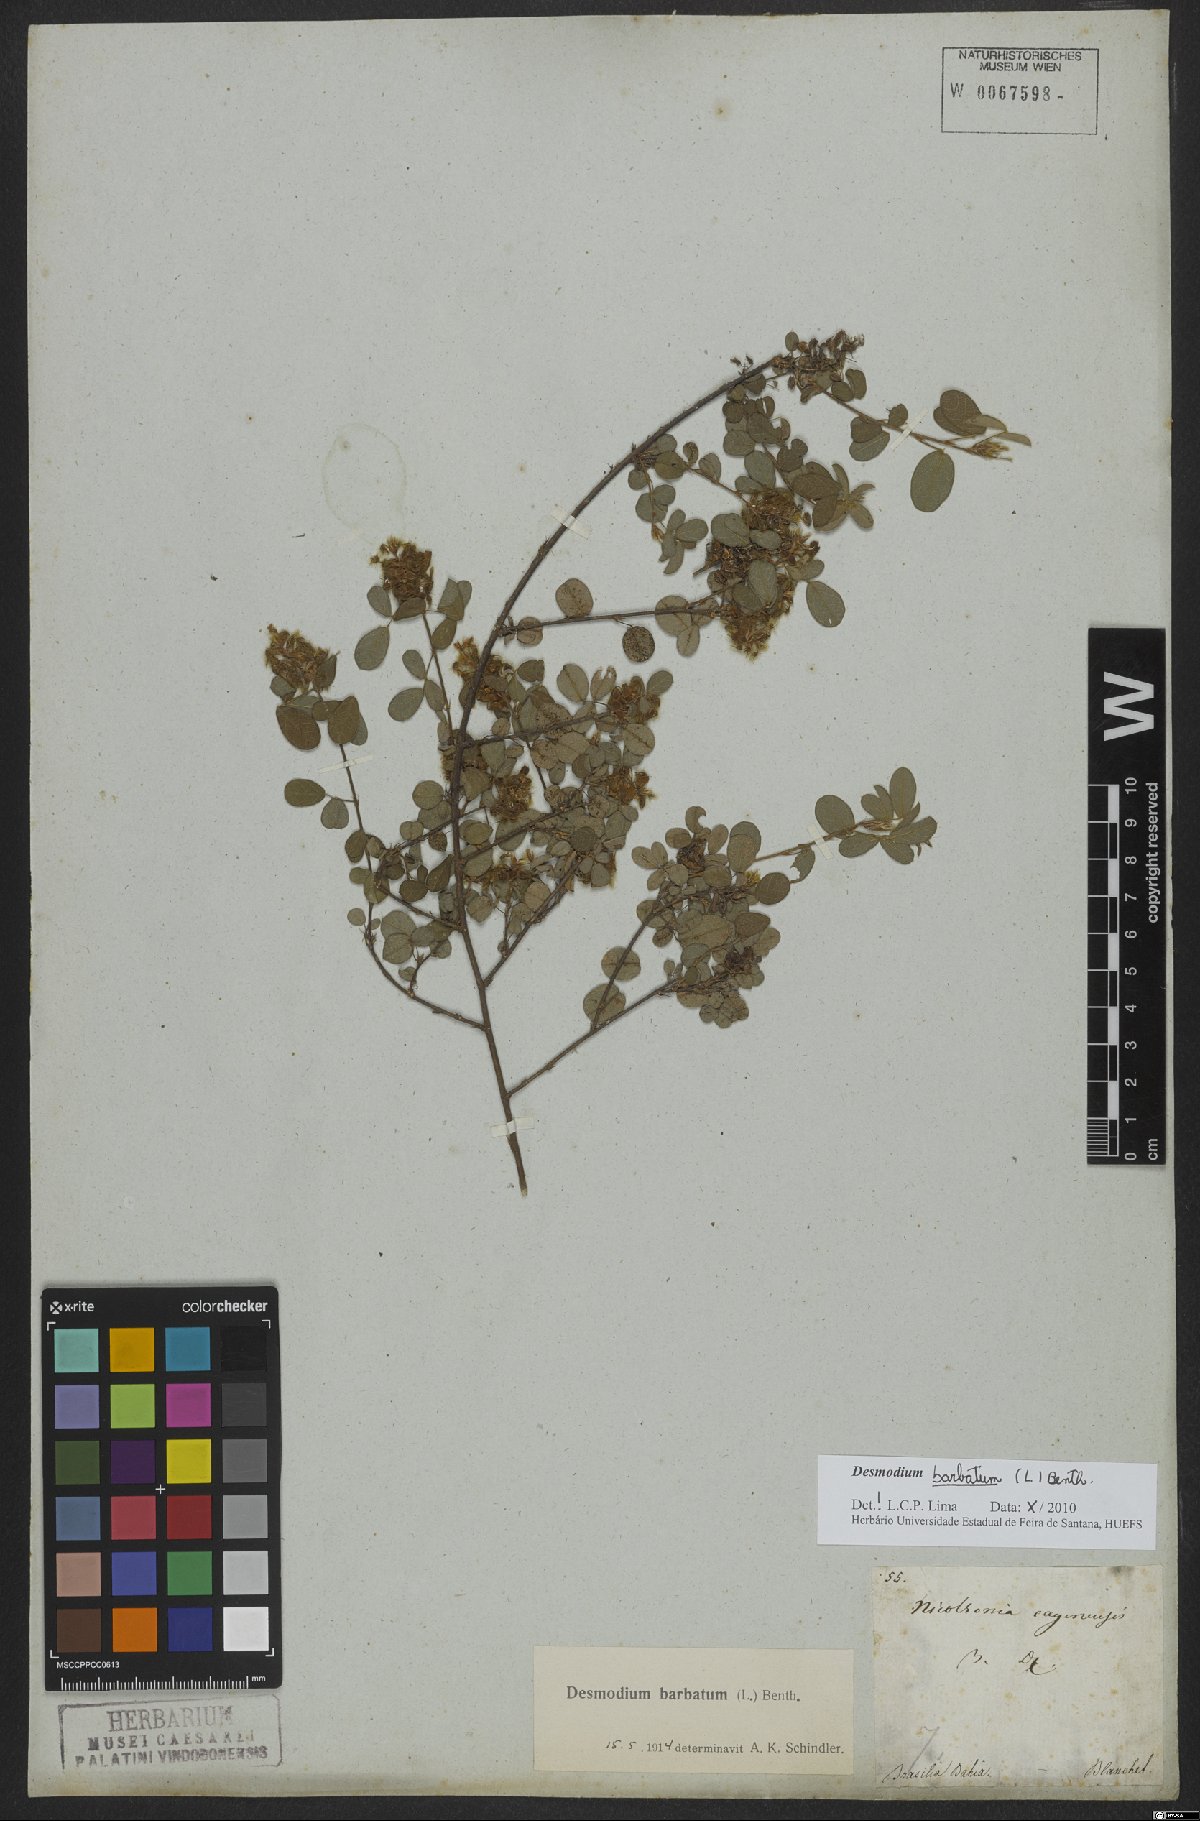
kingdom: Plantae
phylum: Tracheophyta
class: Magnoliopsida
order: Fabales
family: Fabaceae
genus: Grona
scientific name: Grona barbata
